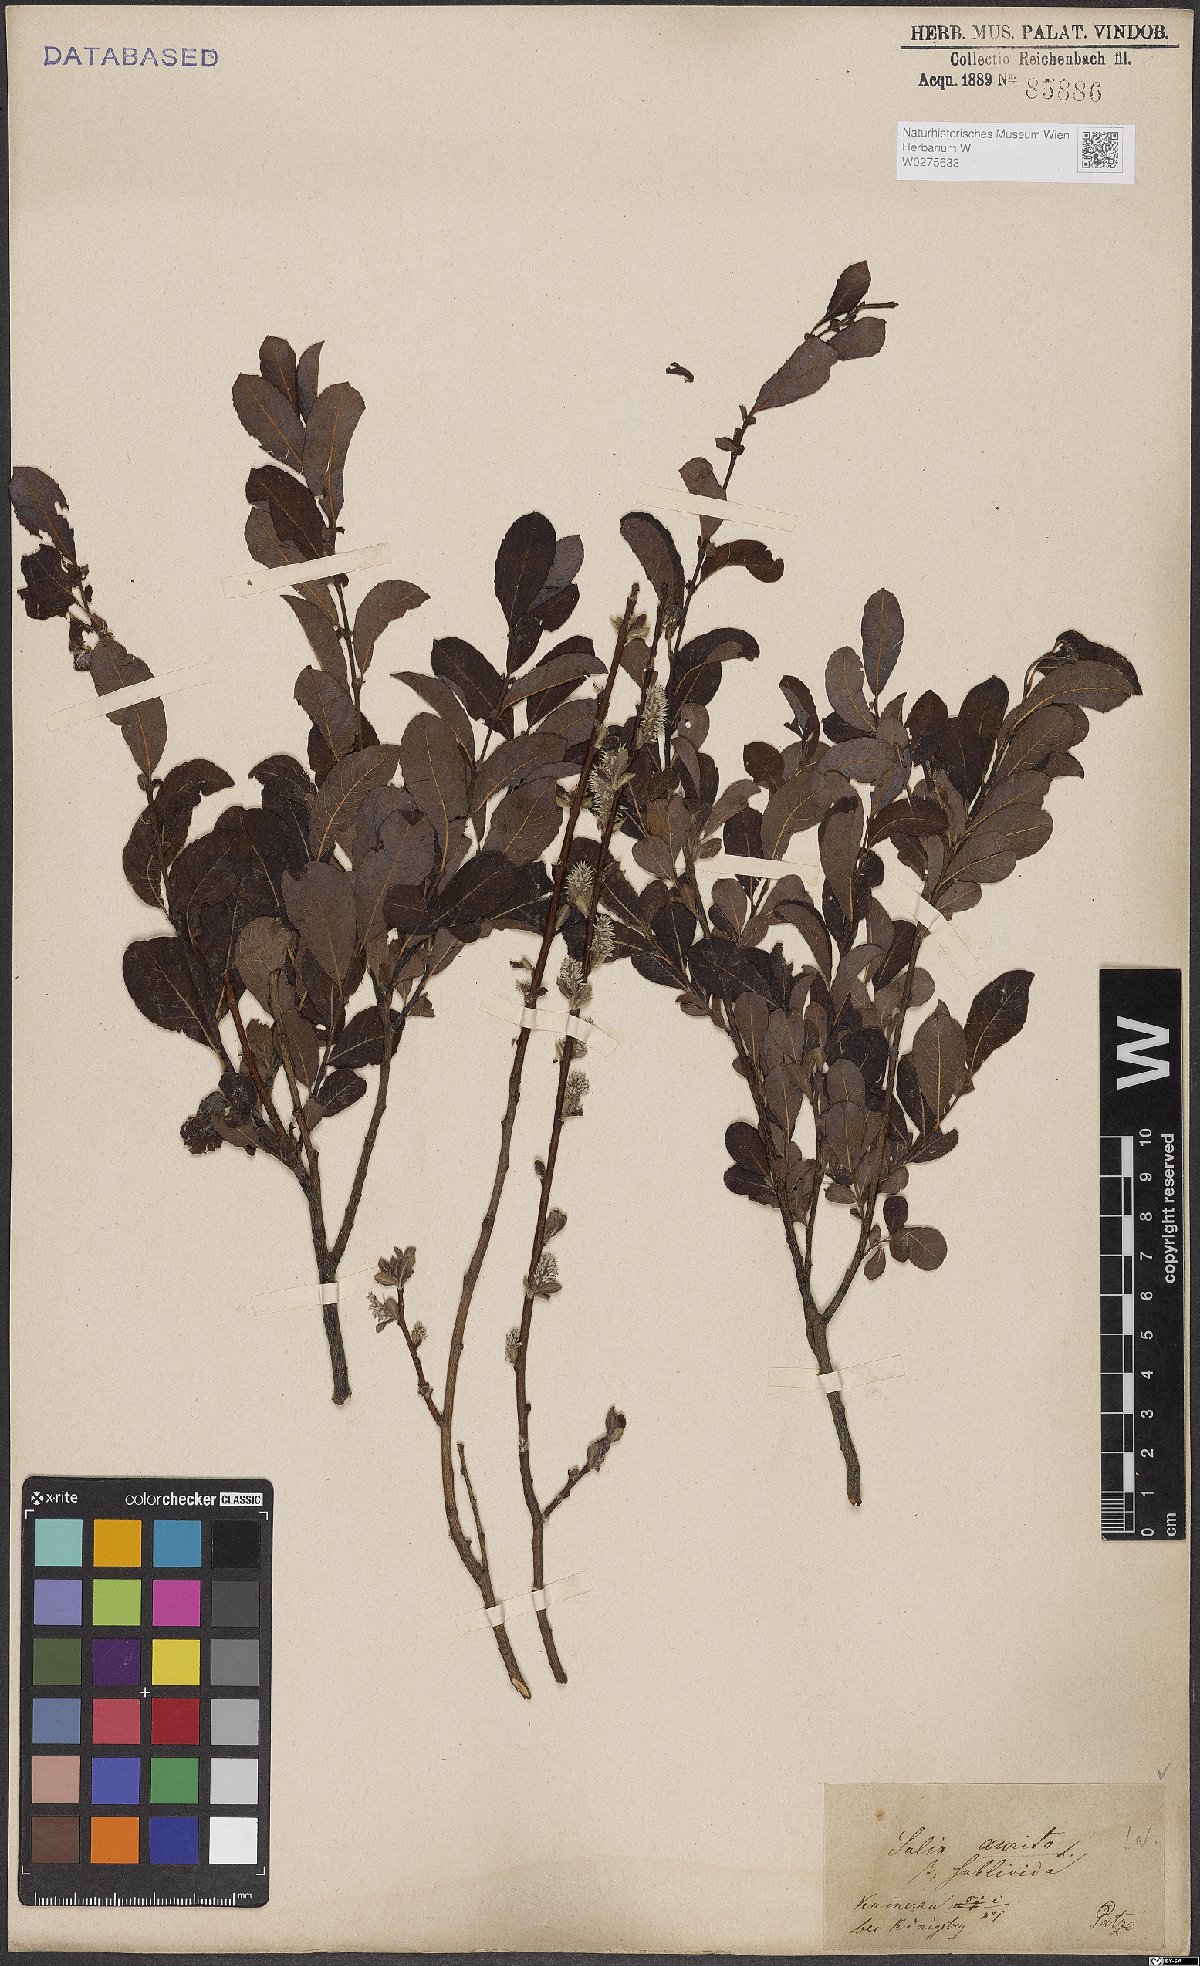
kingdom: Plantae
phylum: Tracheophyta
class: Magnoliopsida
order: Malpighiales
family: Salicaceae
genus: Salix
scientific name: Salix aurita
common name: Eared willow
